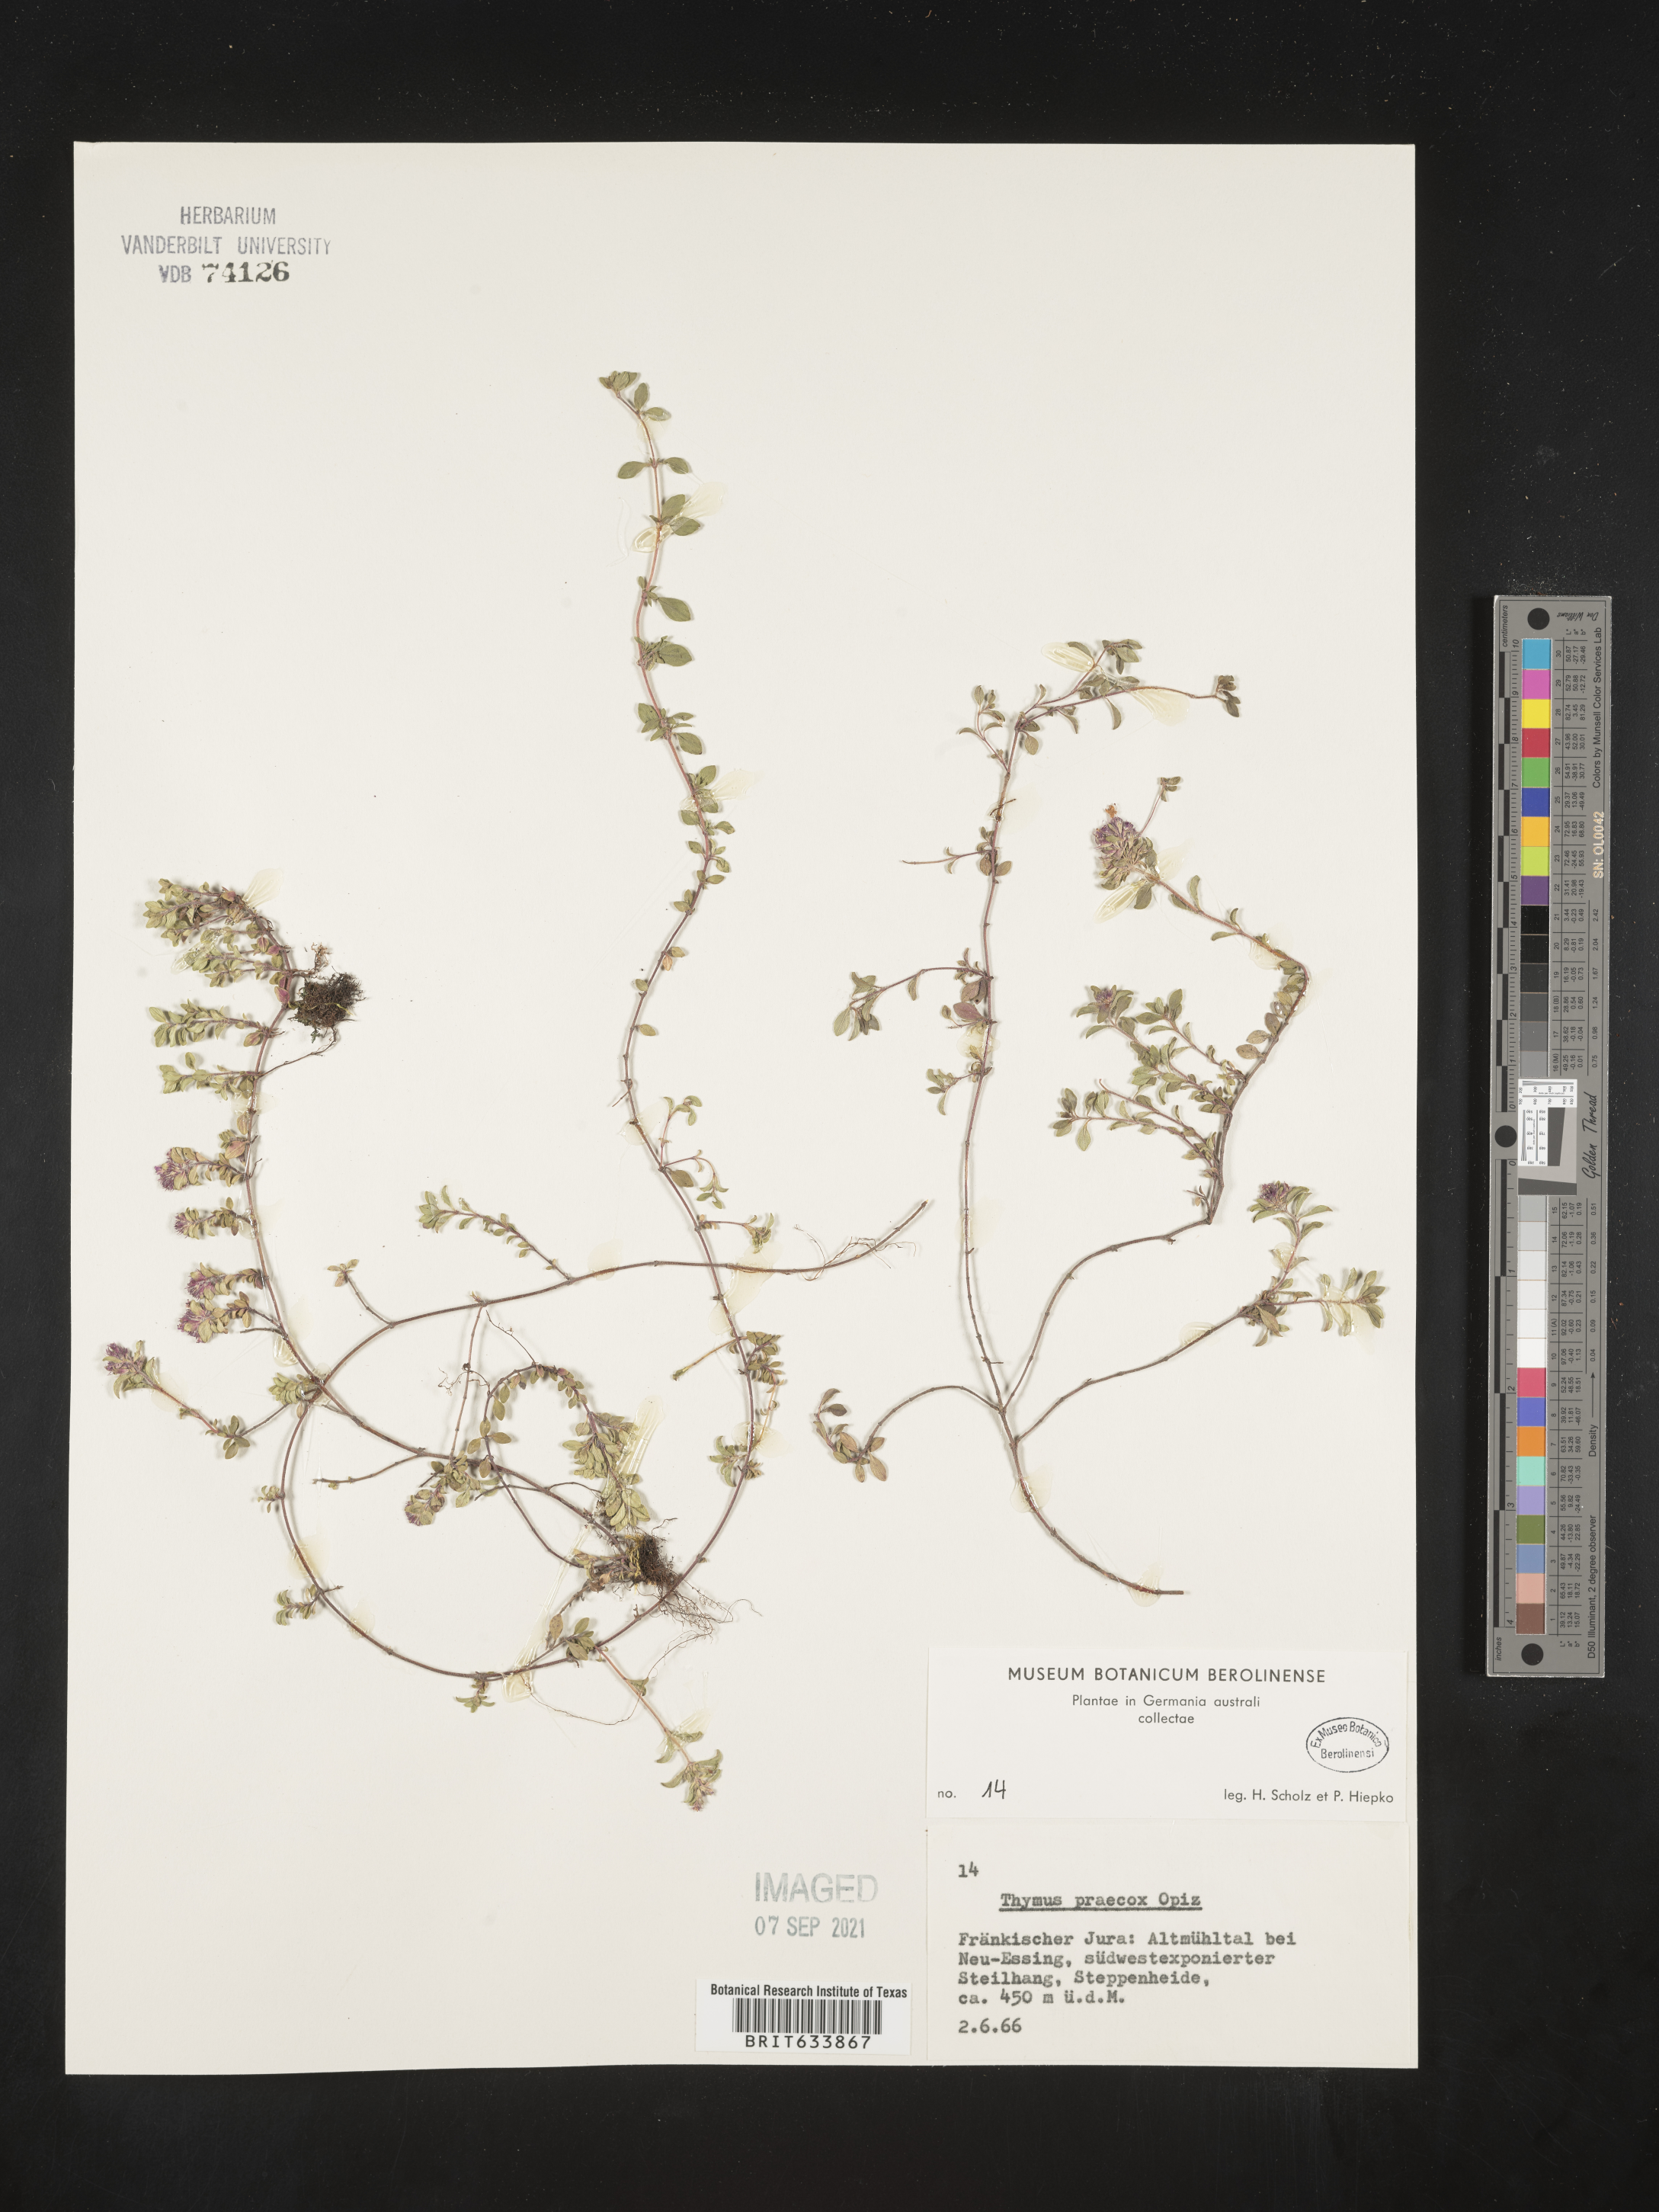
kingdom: Plantae
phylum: Tracheophyta
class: Magnoliopsida
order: Lamiales
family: Lamiaceae
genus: Thymus
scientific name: Thymus
